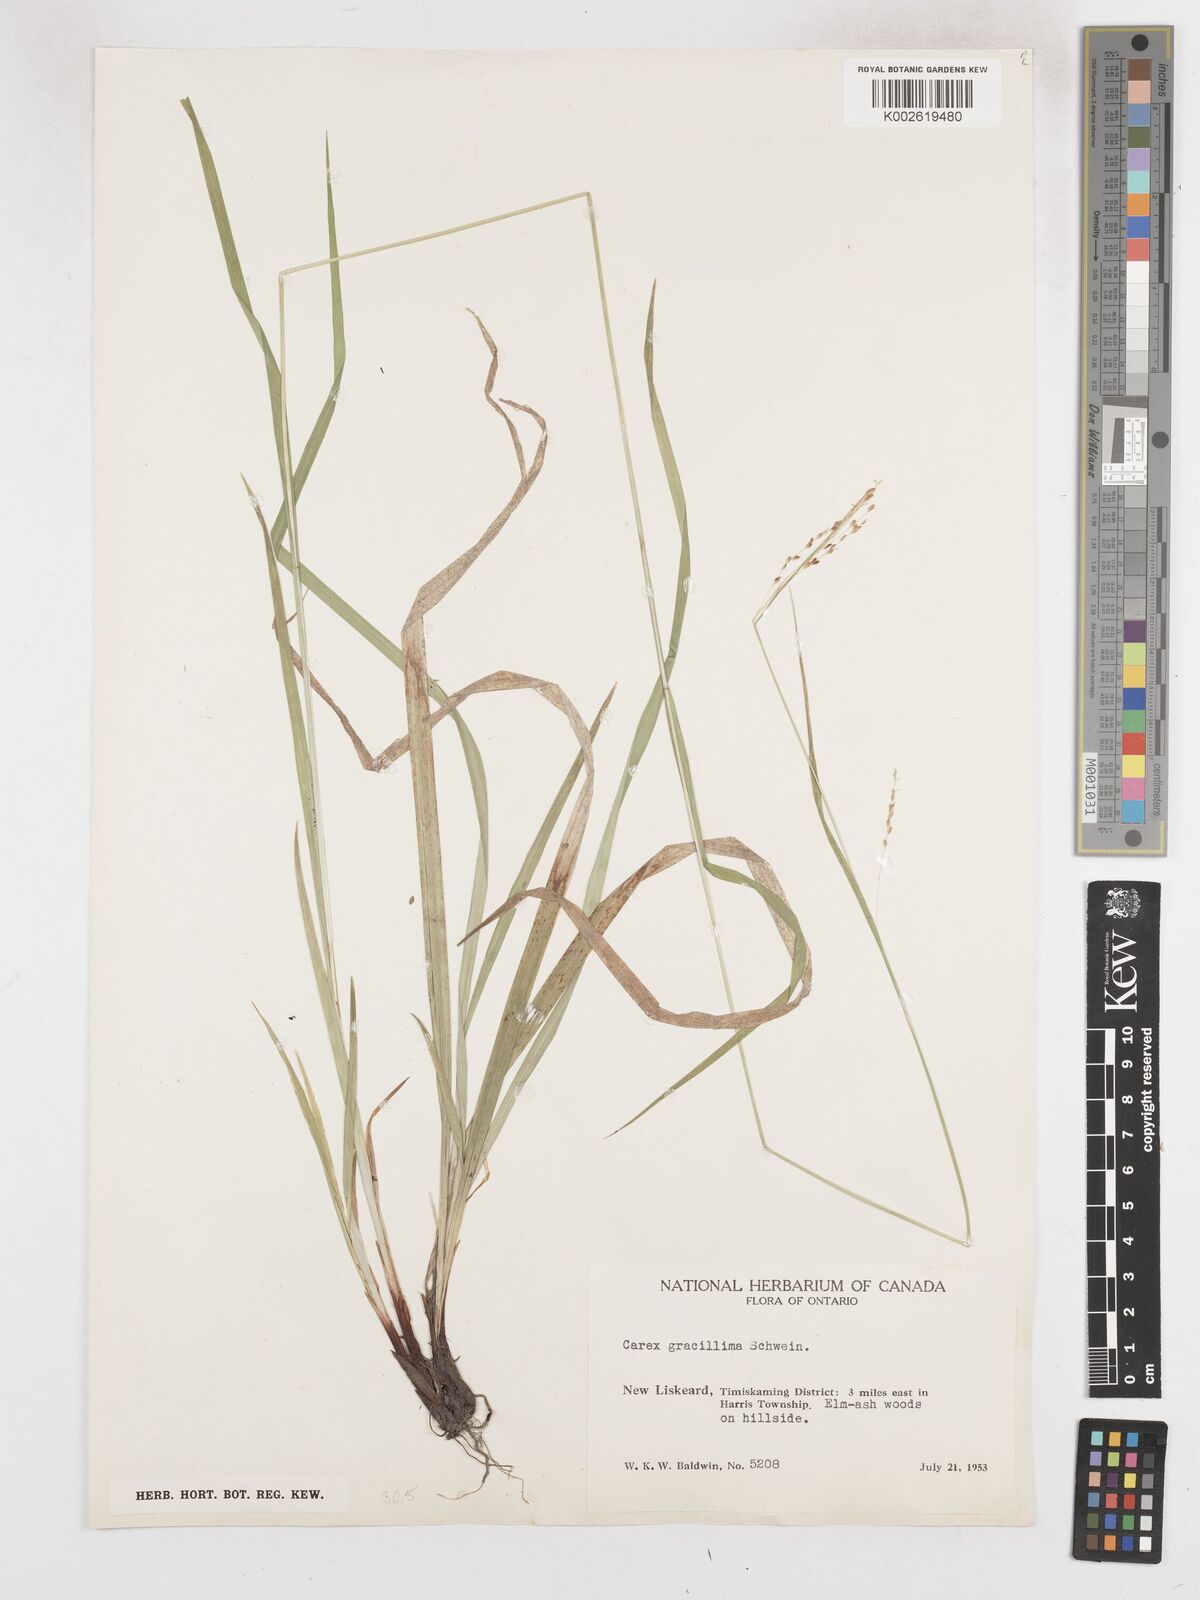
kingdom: Plantae
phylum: Tracheophyta
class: Liliopsida
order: Poales
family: Cyperaceae
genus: Carex
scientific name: Carex gracillima
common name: Graceful sedge
